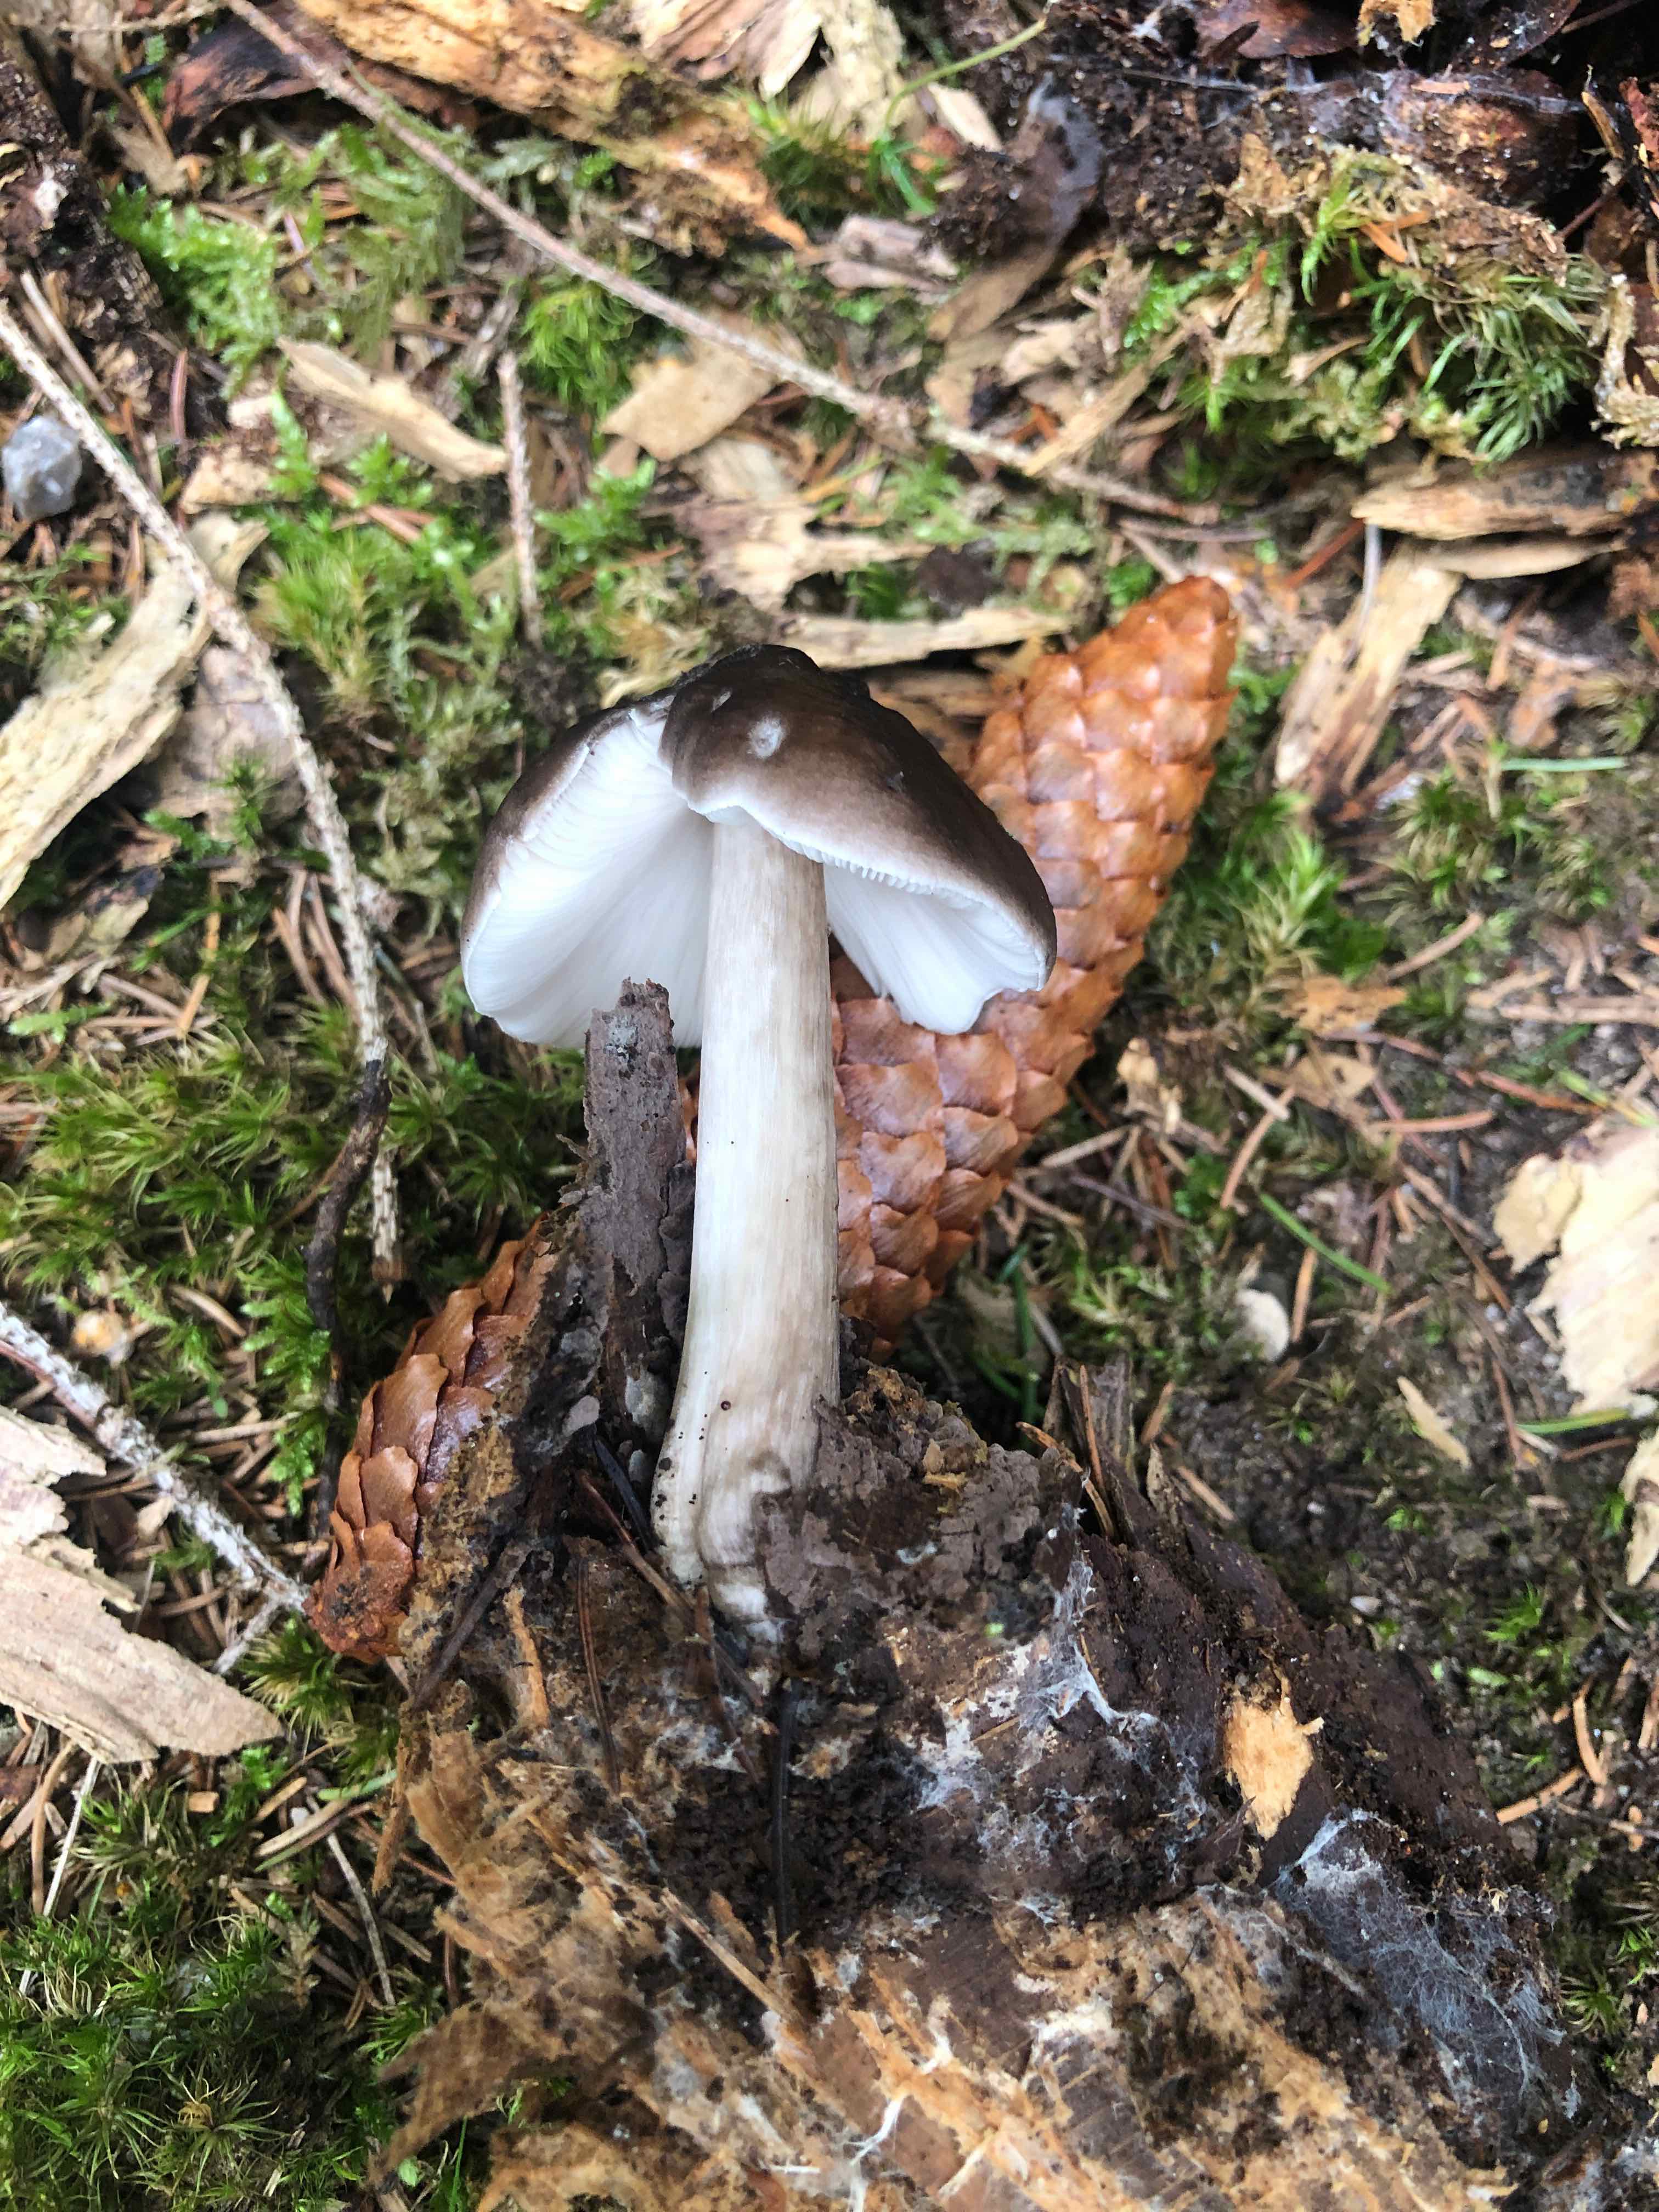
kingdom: Fungi
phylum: Basidiomycota
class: Agaricomycetes
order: Agaricales
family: Pluteaceae
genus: Pluteus
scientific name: Pluteus cervinus
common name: sodfarvet skærmhat
